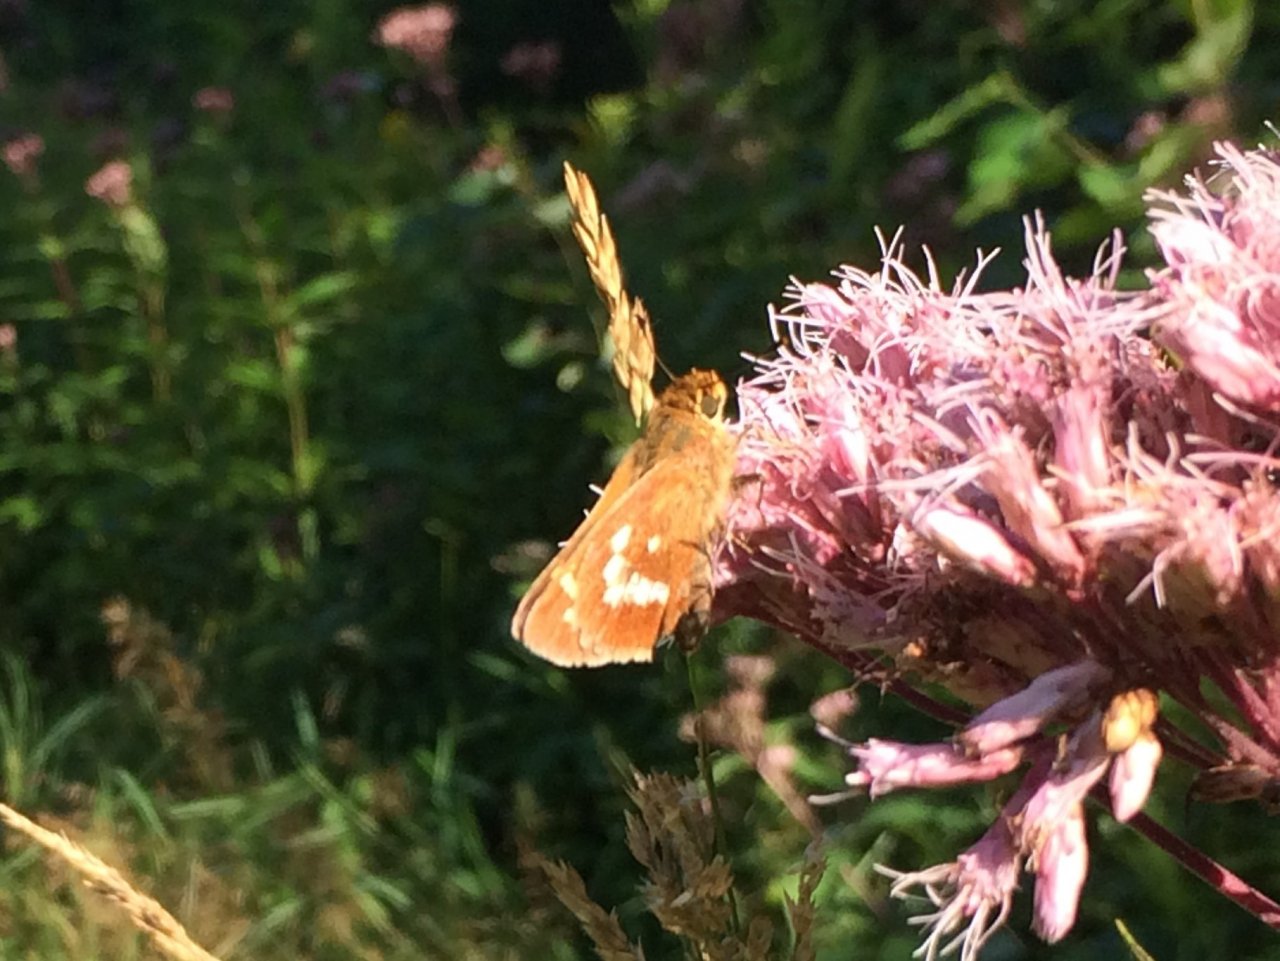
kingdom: Animalia
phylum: Arthropoda
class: Insecta
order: Lepidoptera
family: Hesperiidae
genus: Hesperia
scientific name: Hesperia leonardus
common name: Leonard's Skipper
